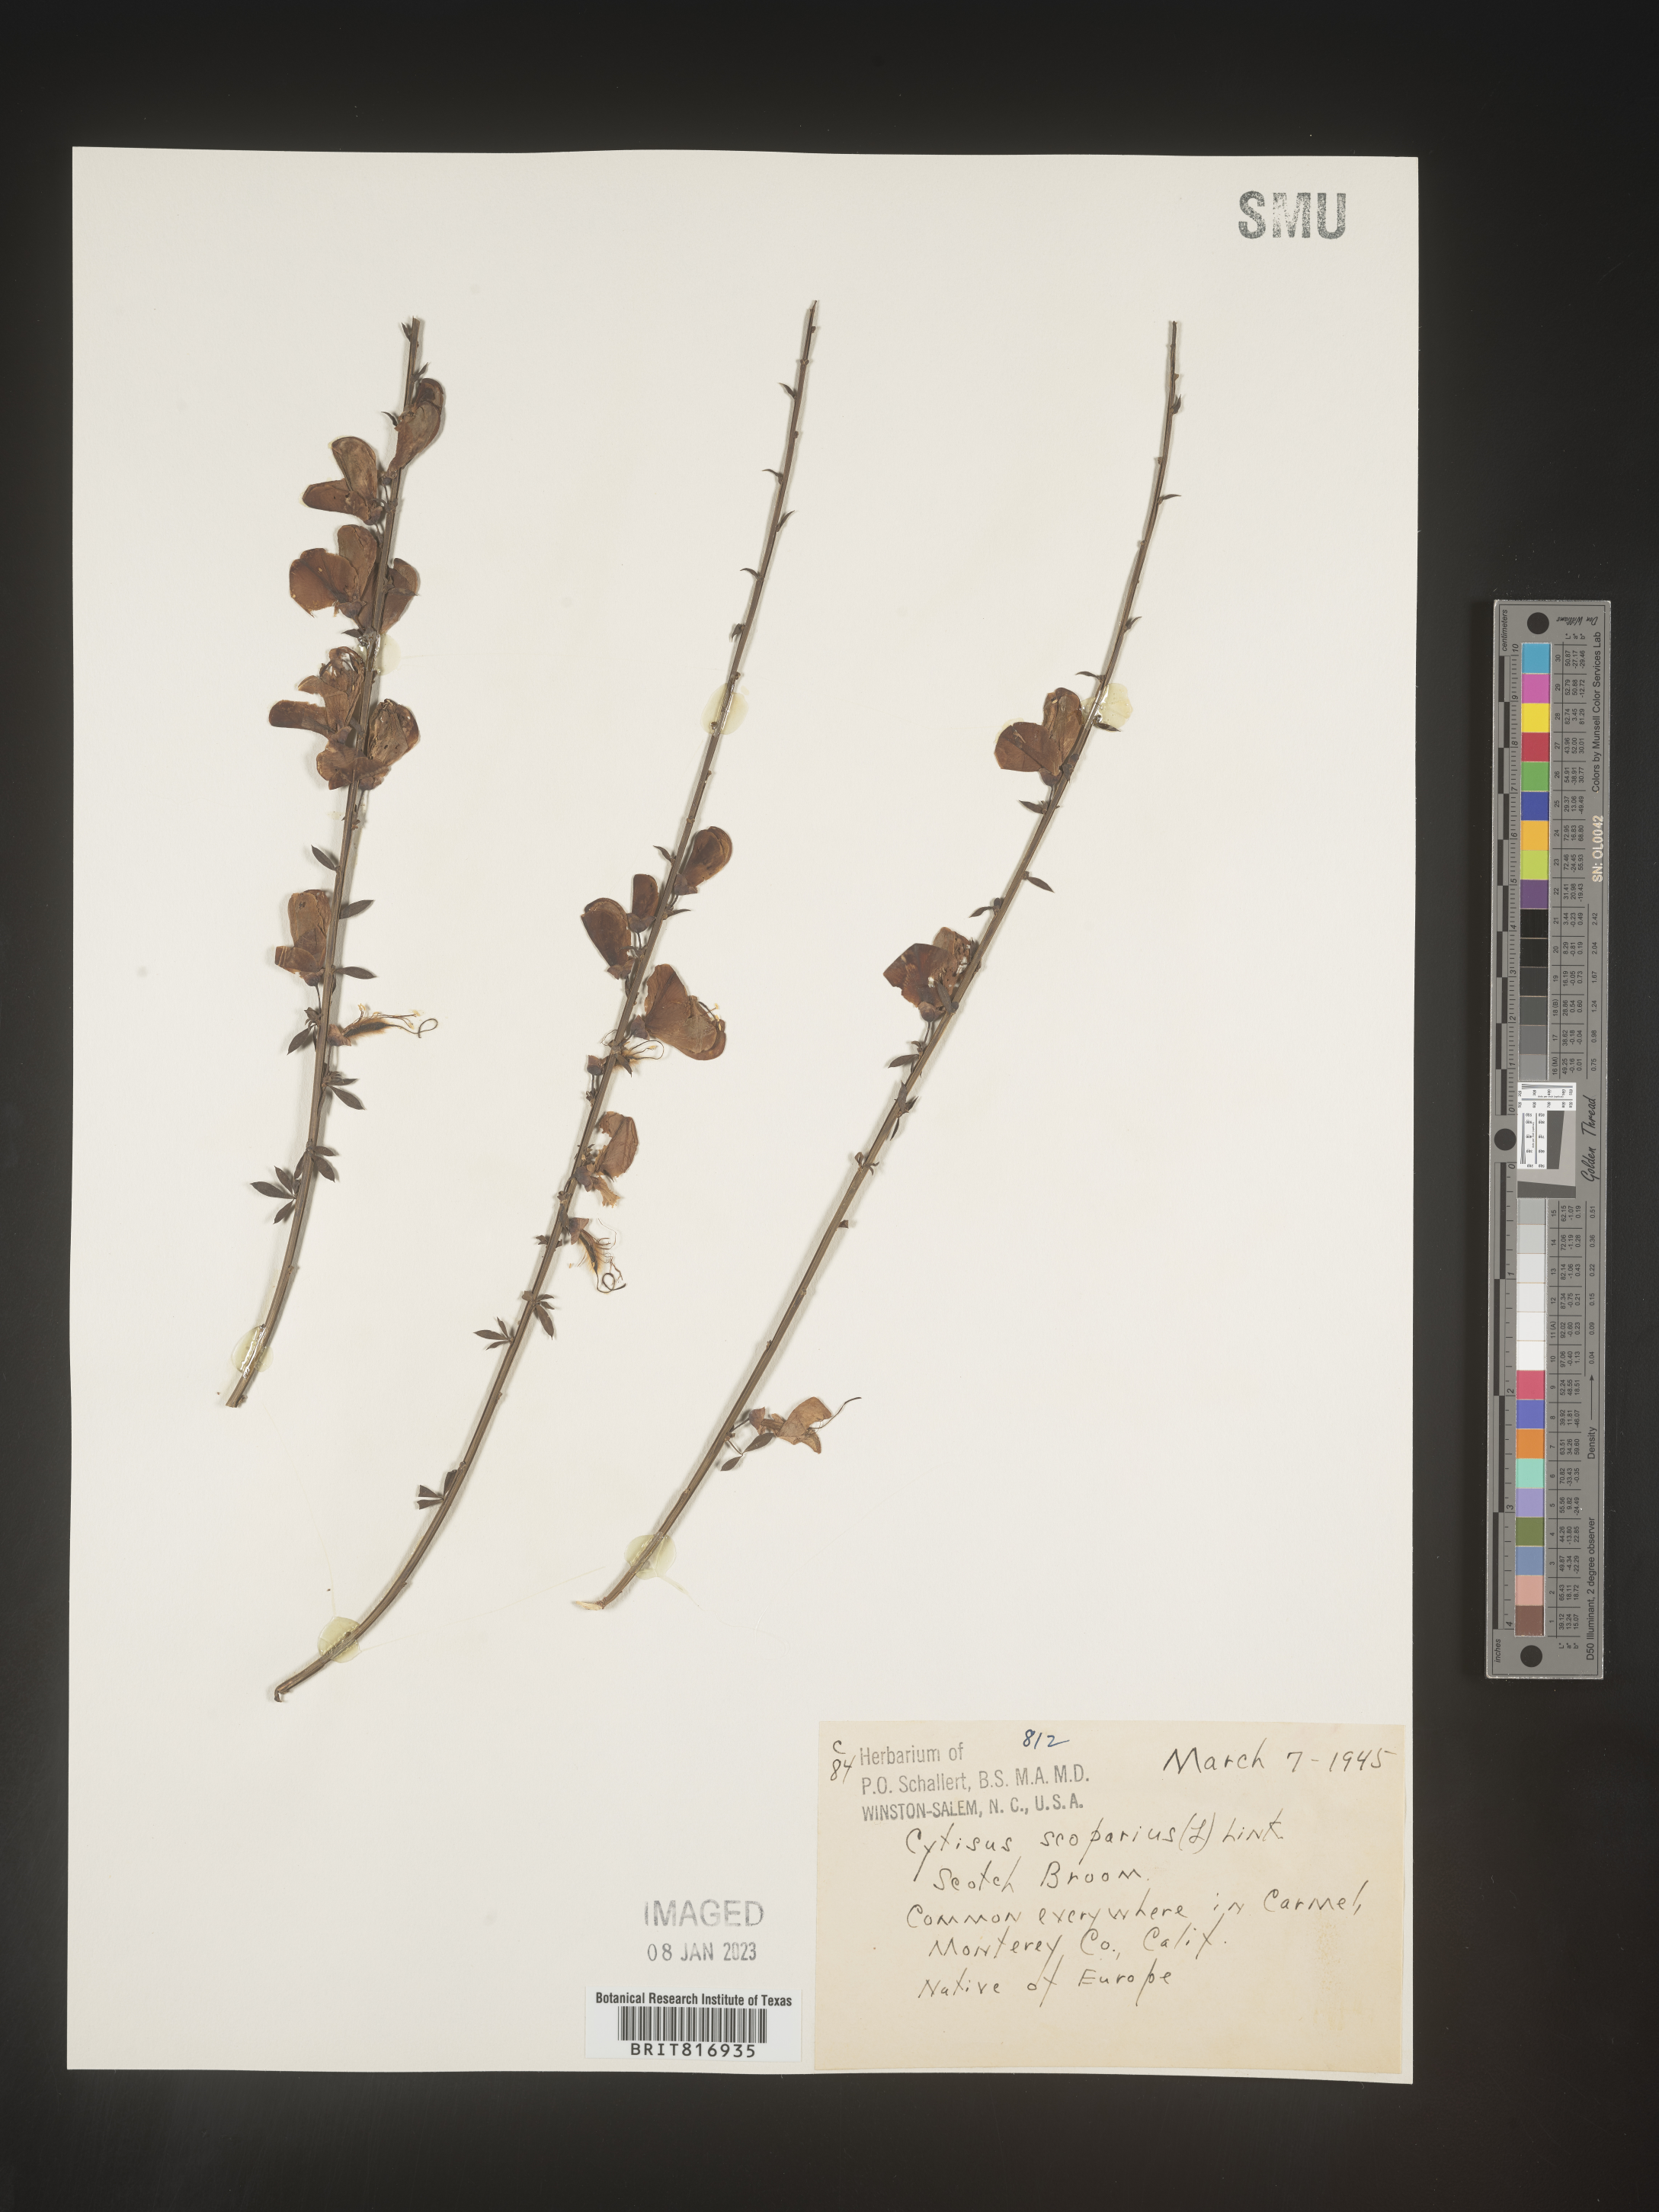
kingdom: Plantae
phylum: Tracheophyta
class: Magnoliopsida
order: Fabales
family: Fabaceae
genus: Cytisus
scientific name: Cytisus
